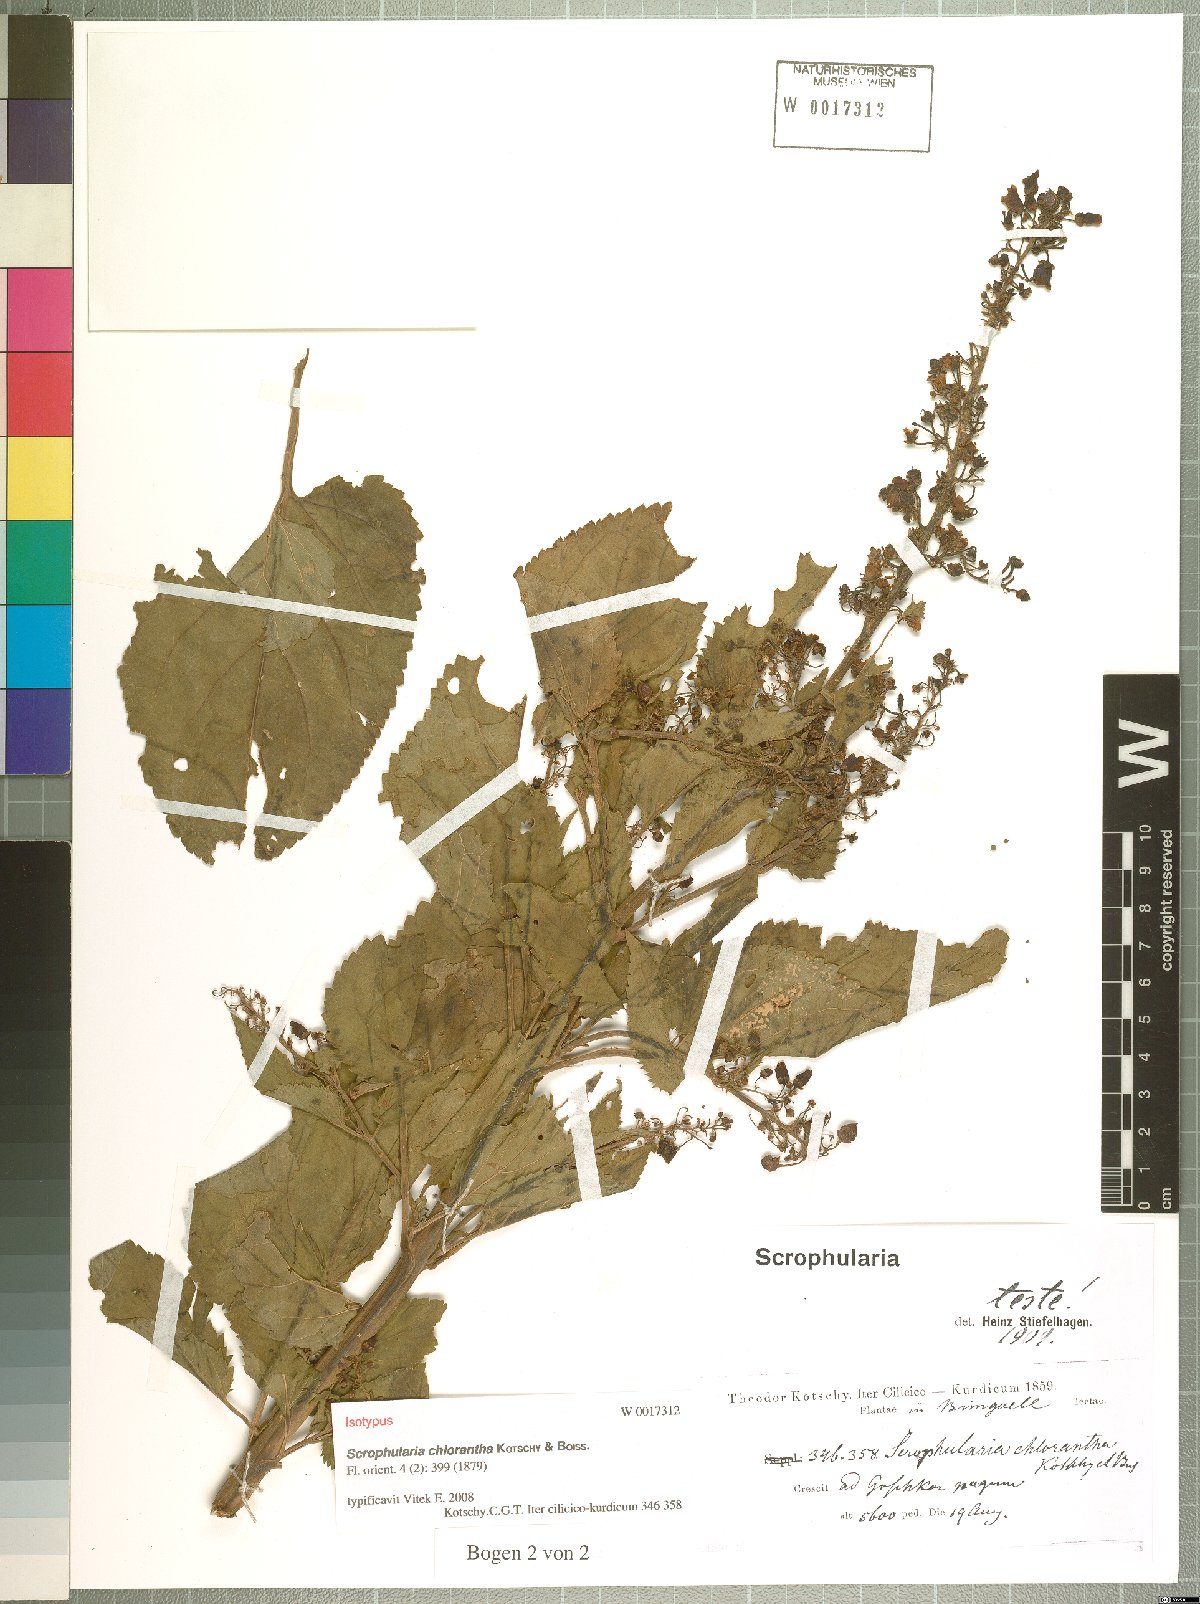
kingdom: Plantae
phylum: Tracheophyta
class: Magnoliopsida
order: Lamiales
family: Scrophulariaceae
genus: Scrophularia
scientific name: Scrophularia chlorantha
